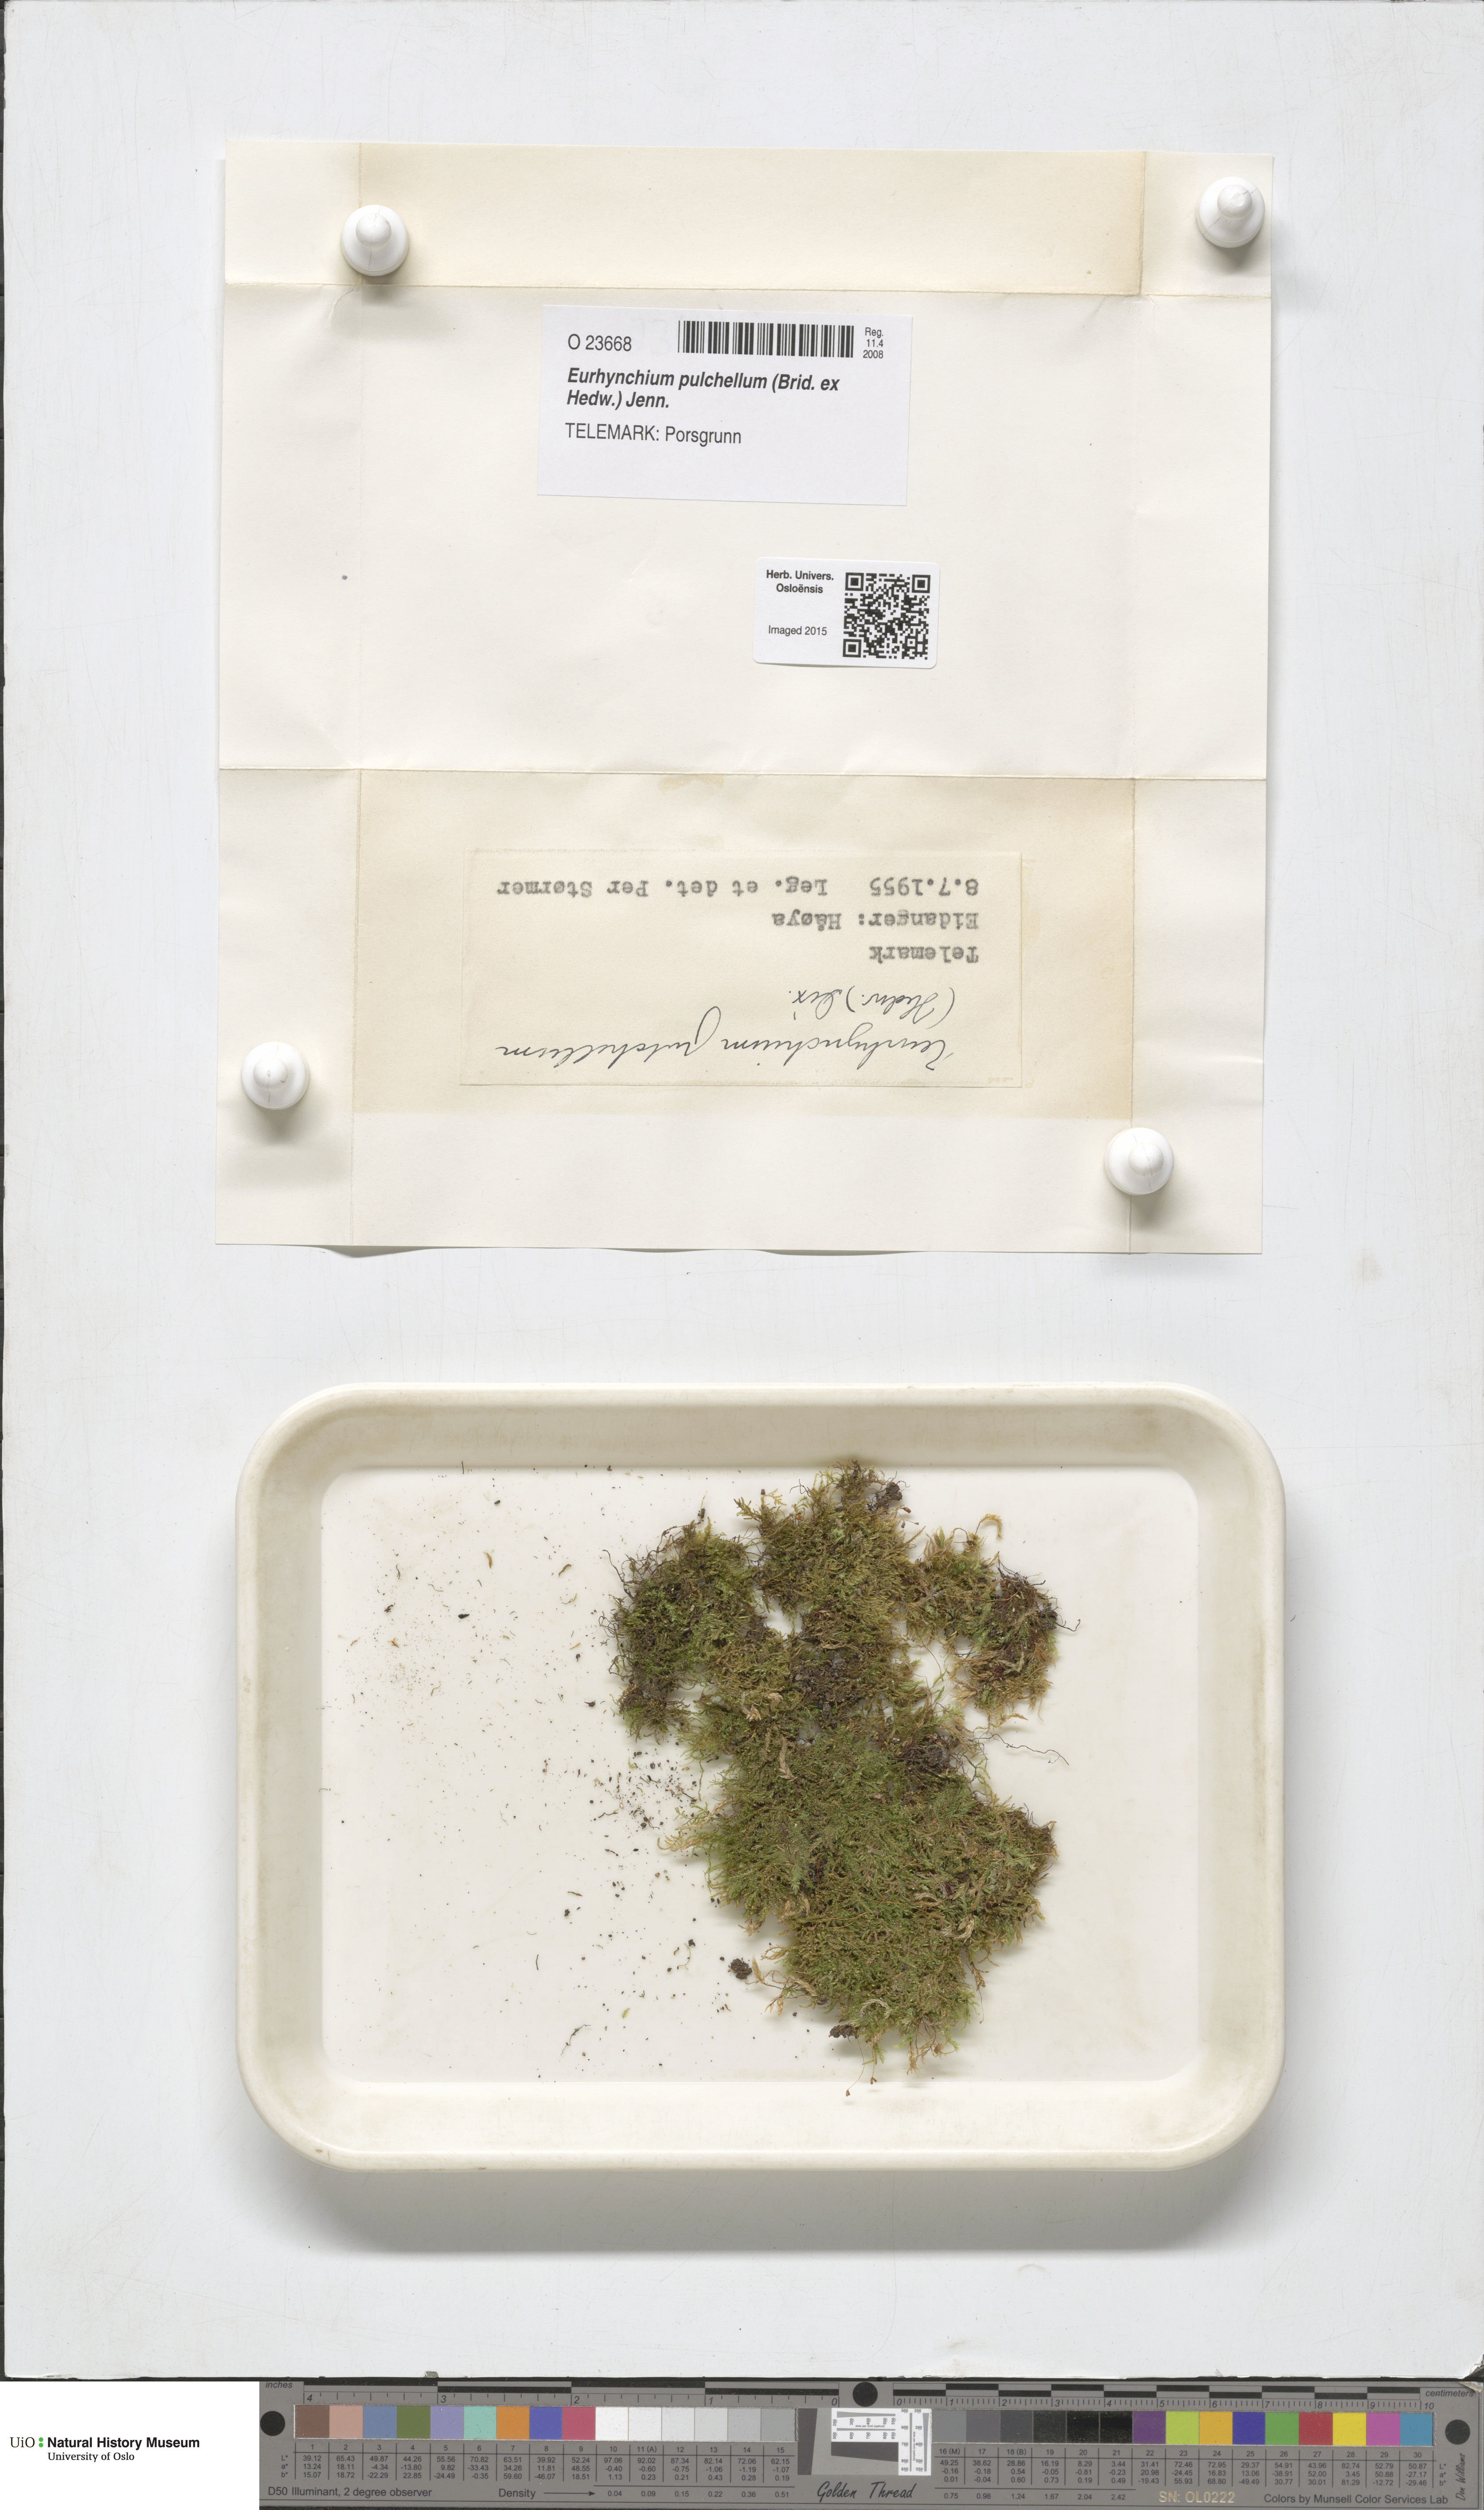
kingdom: Plantae
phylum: Bryophyta
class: Bryopsida
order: Hypnales
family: Brachytheciaceae
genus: Eurhynchiastrum
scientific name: Eurhynchiastrum pulchellum
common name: Elegant beaked moss
